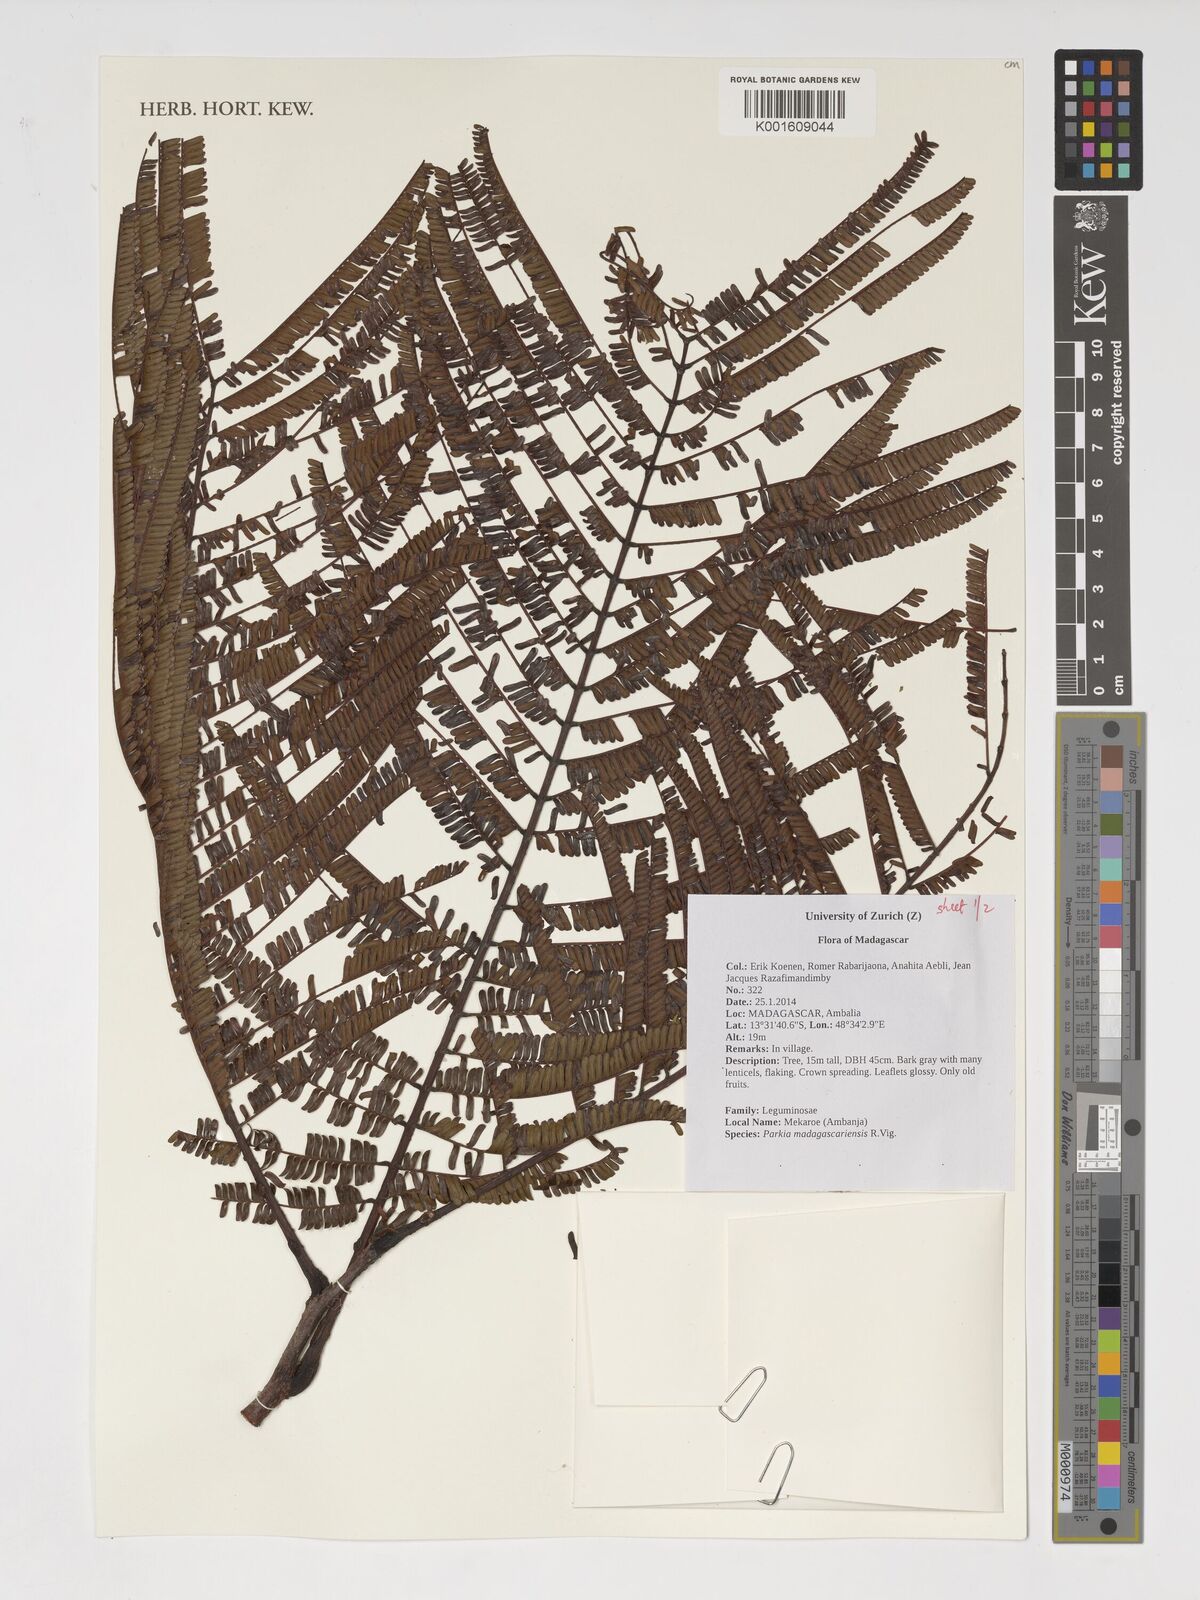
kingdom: Plantae
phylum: Tracheophyta
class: Magnoliopsida
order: Fabales
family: Fabaceae
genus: Parkia
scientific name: Parkia madagascariensis
